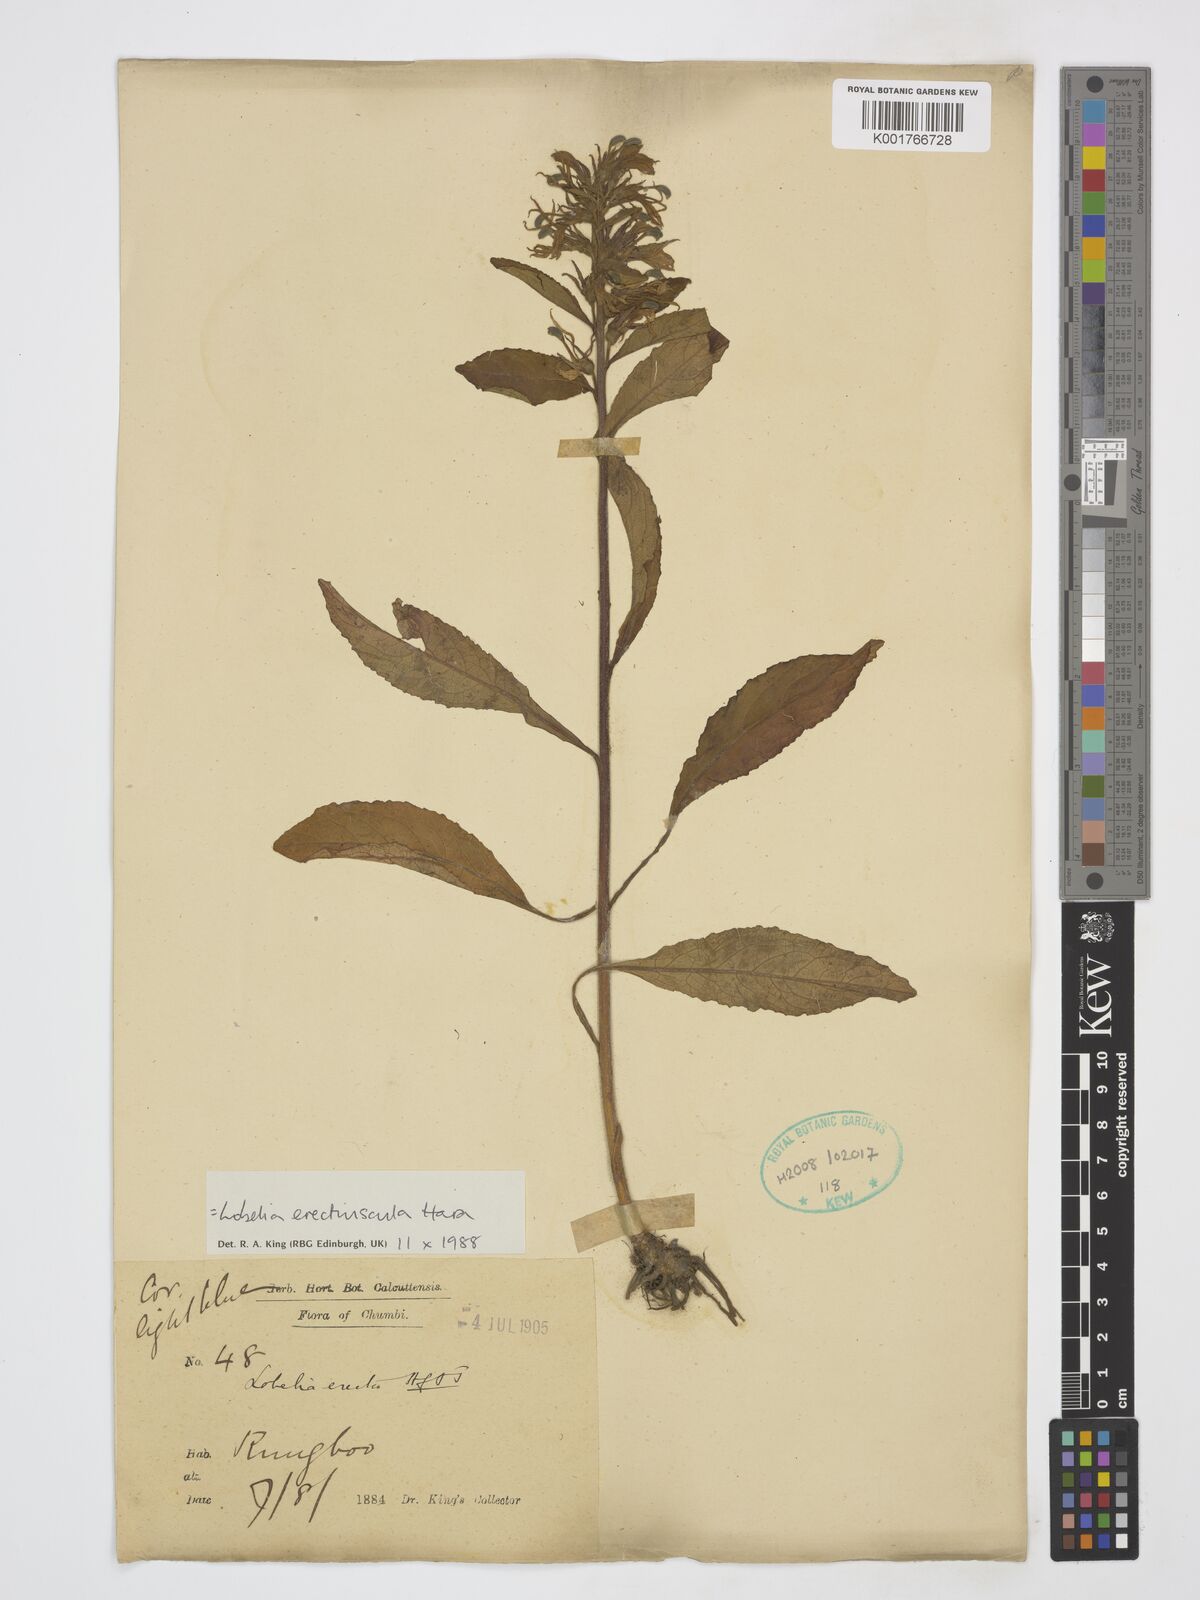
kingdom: Plantae
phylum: Tracheophyta
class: Magnoliopsida
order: Asterales
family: Campanulaceae
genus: Lobelia
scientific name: Lobelia erectiuscula
